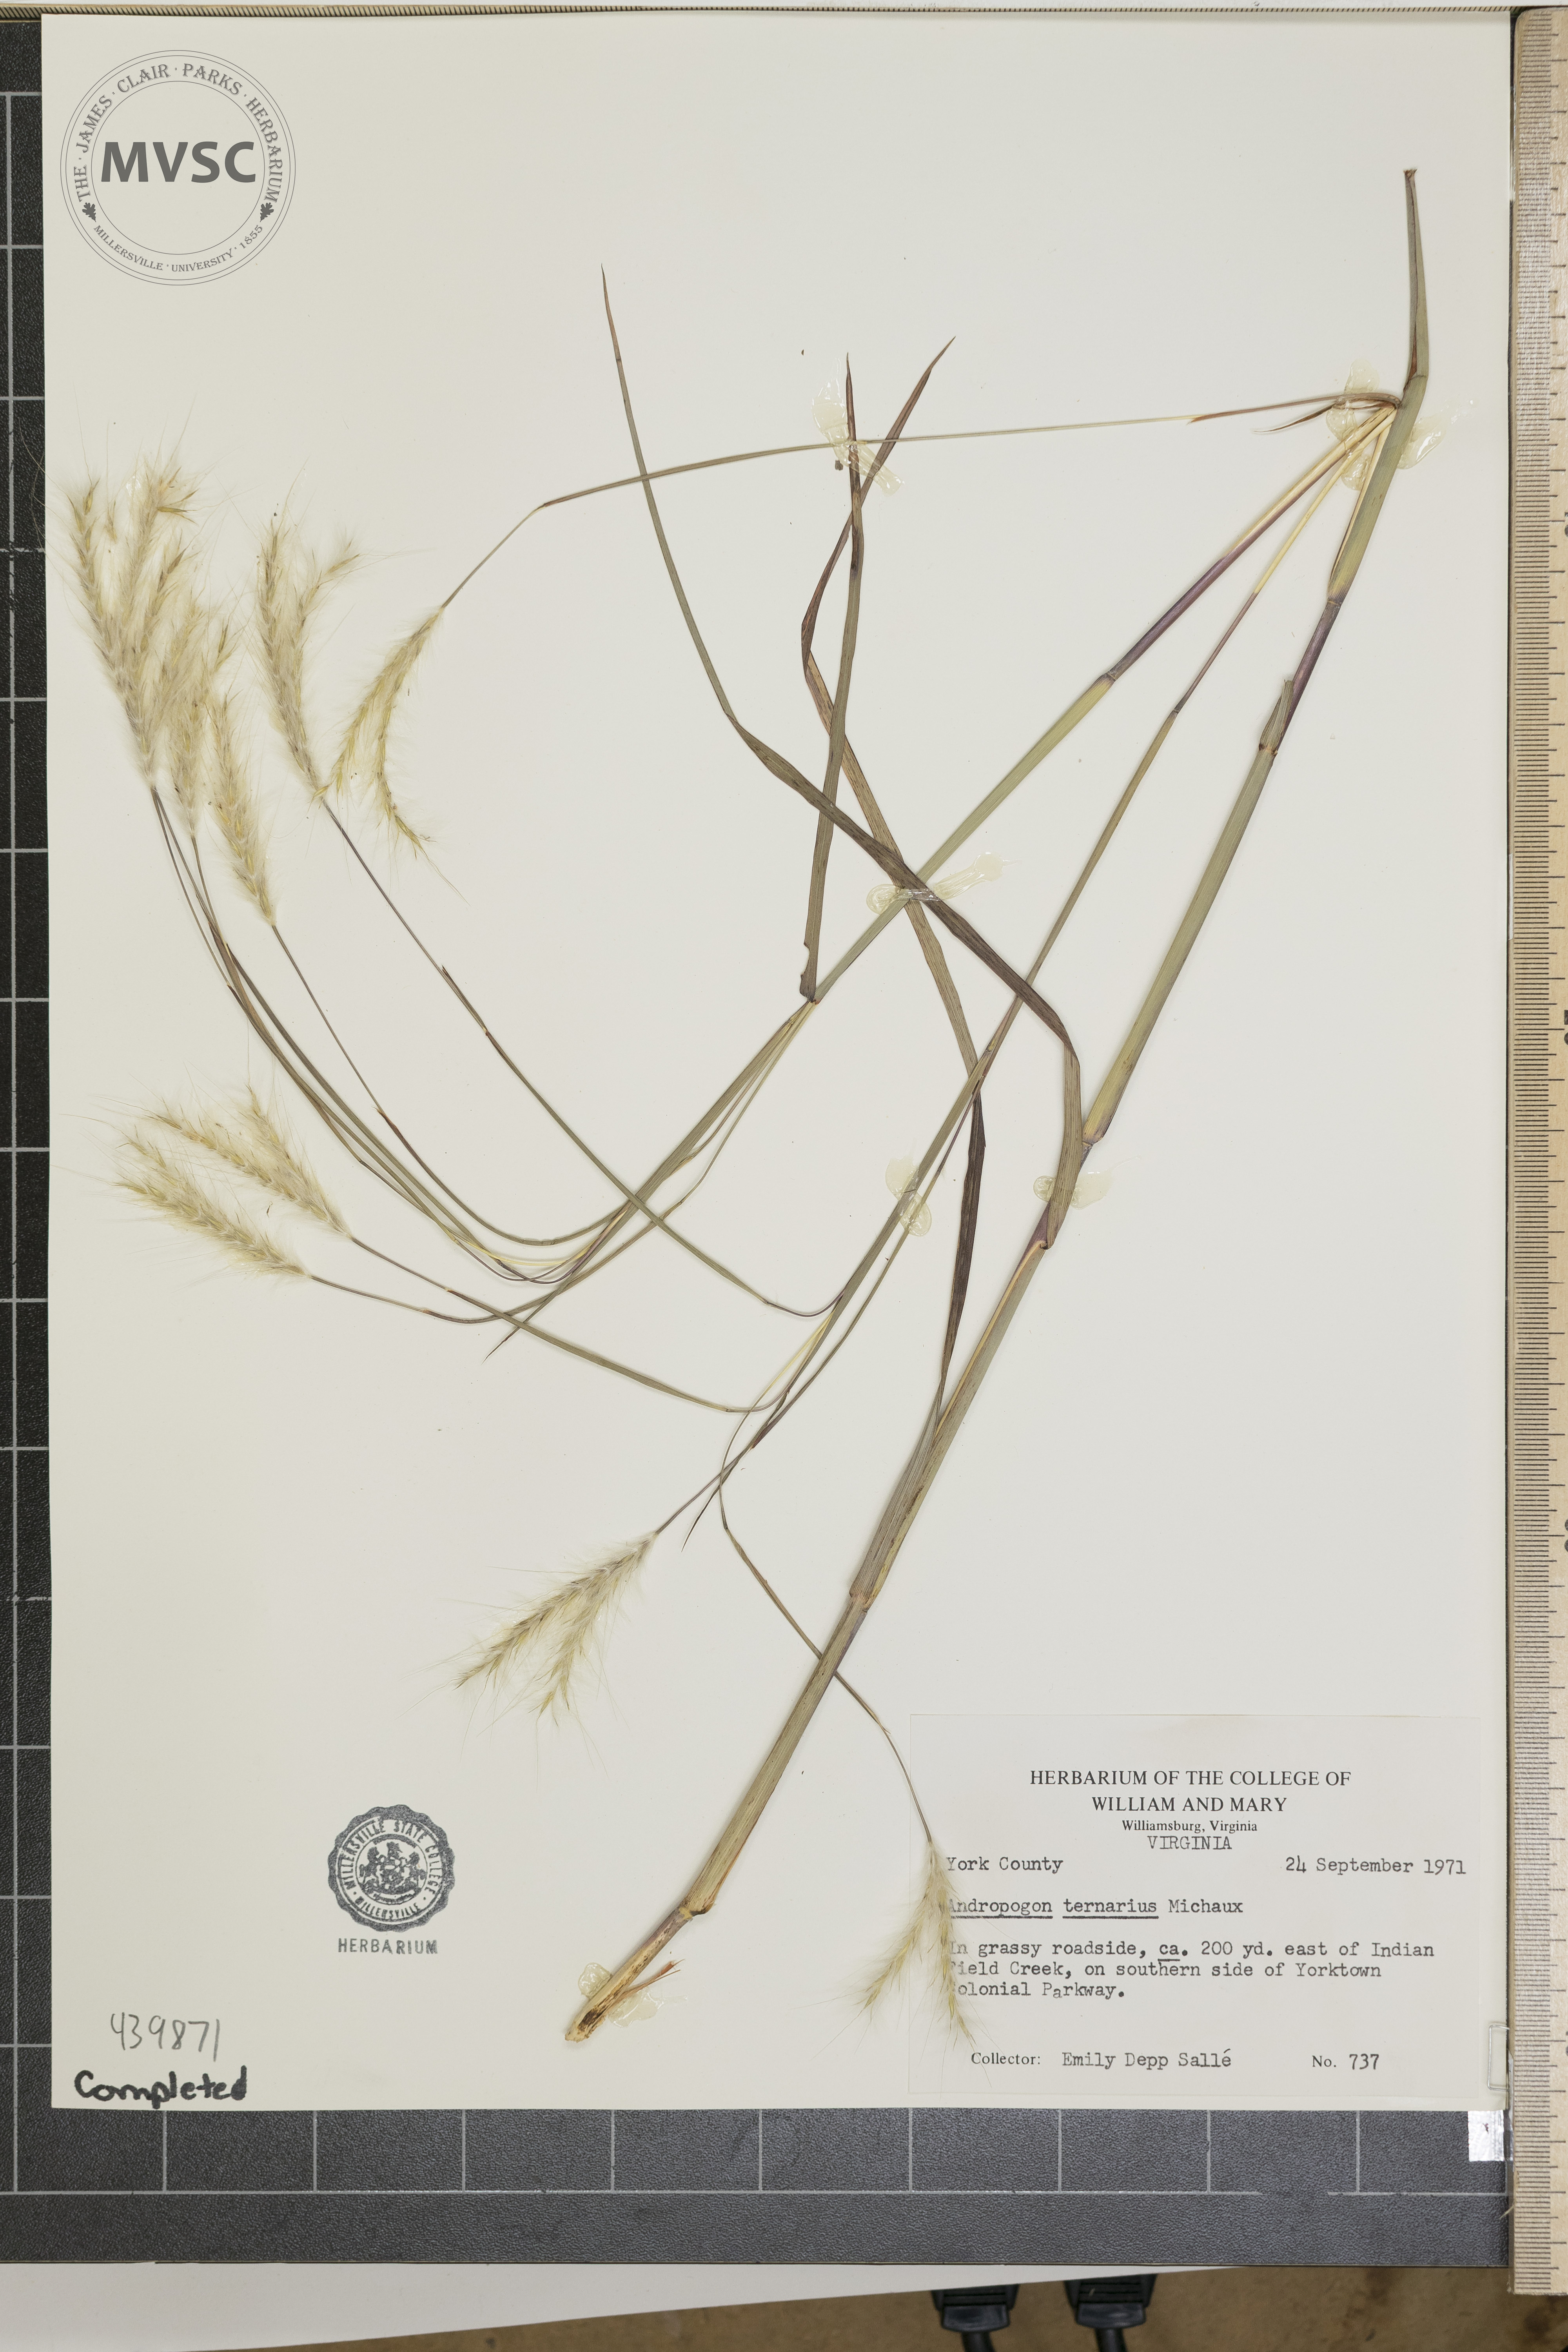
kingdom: Plantae
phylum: Tracheophyta
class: Liliopsida
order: Poales
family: Poaceae
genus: Andropogon
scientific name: Andropogon ternarius
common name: Split bluestem
